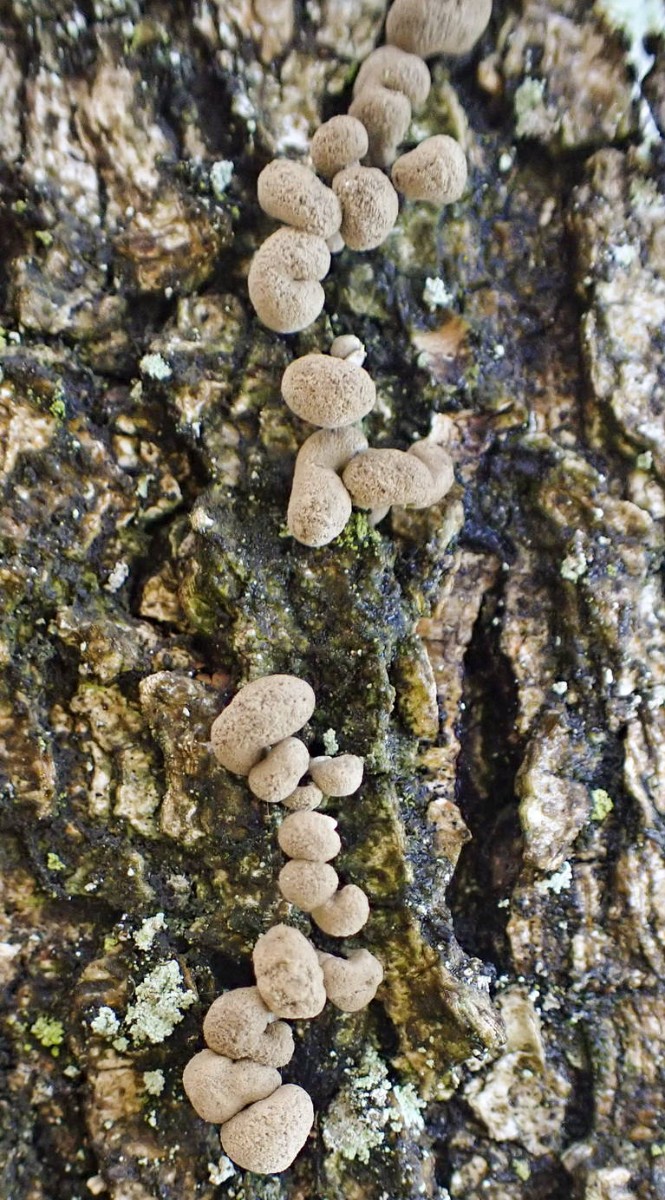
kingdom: Fungi
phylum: Basidiomycota
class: Atractiellomycetes
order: Atractiellales
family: Phleogenaceae
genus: Phleogena
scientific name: Phleogena faginea
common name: pudderkølle
